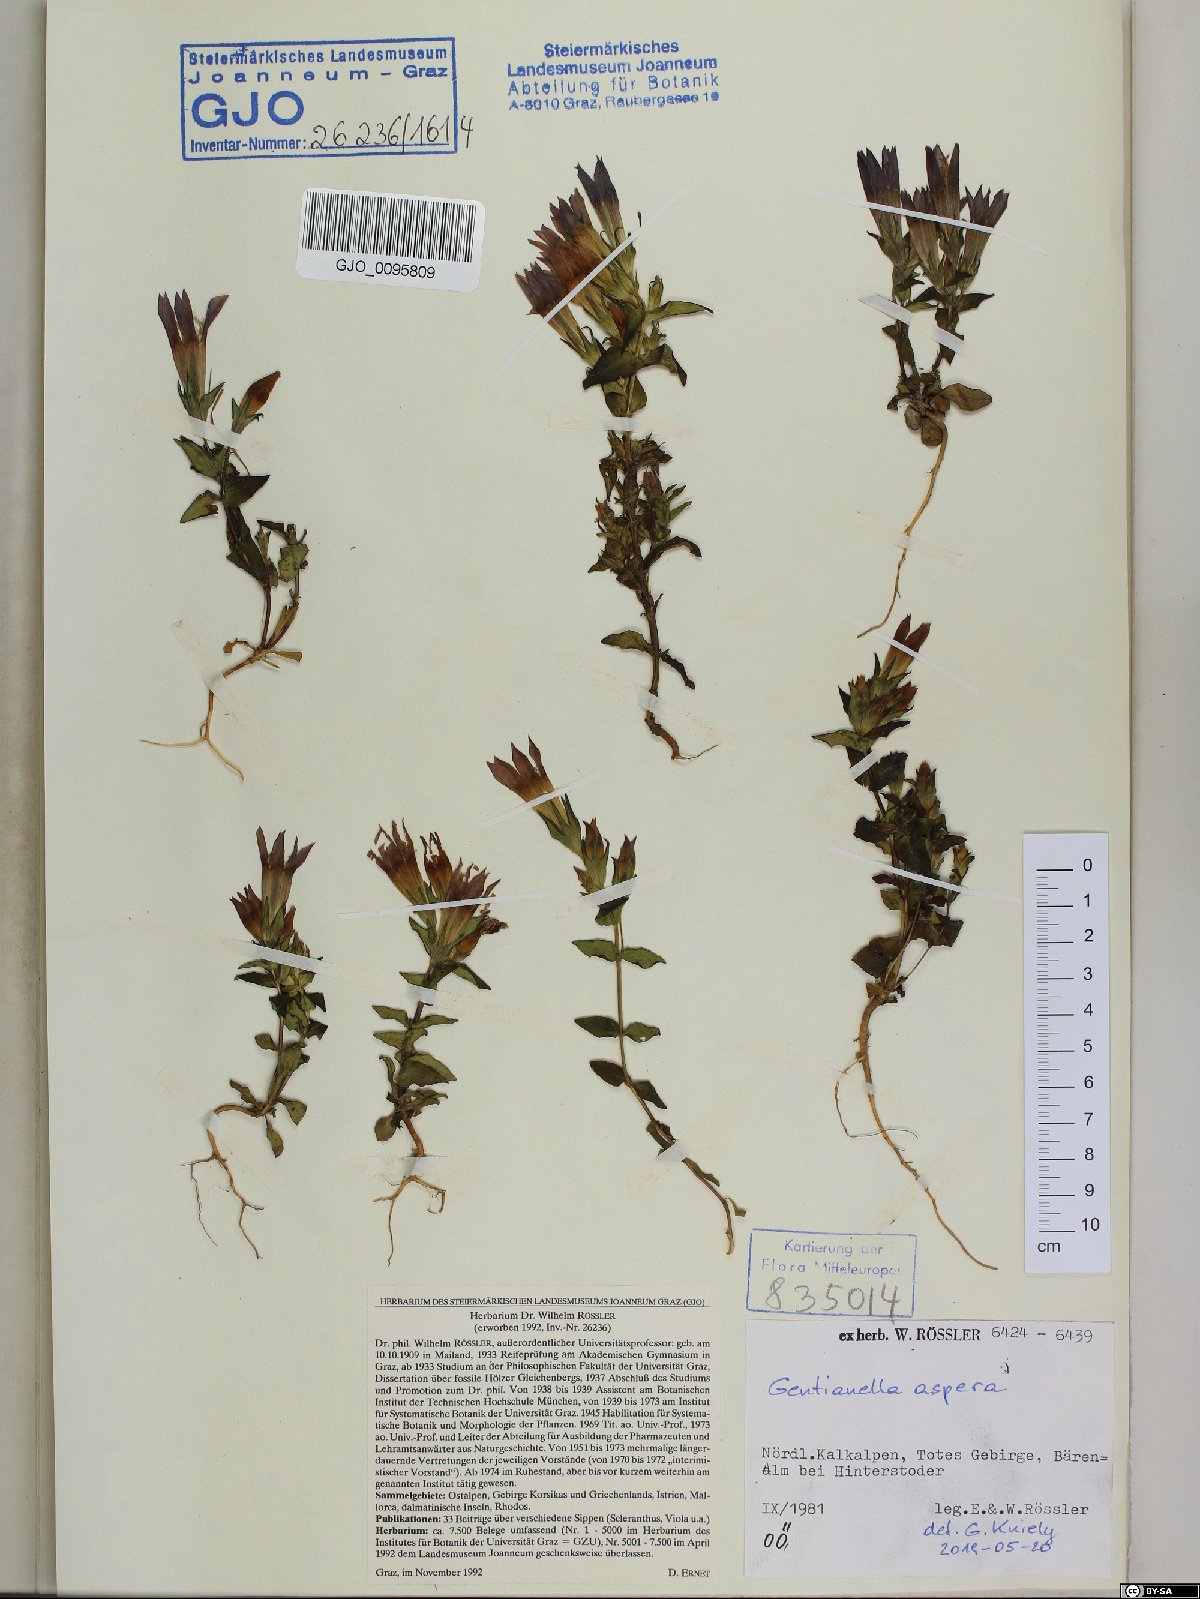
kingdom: Plantae
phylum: Tracheophyta
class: Magnoliopsida
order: Gentianales
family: Gentianaceae
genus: Gentianella
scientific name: Gentianella obtusifolia
